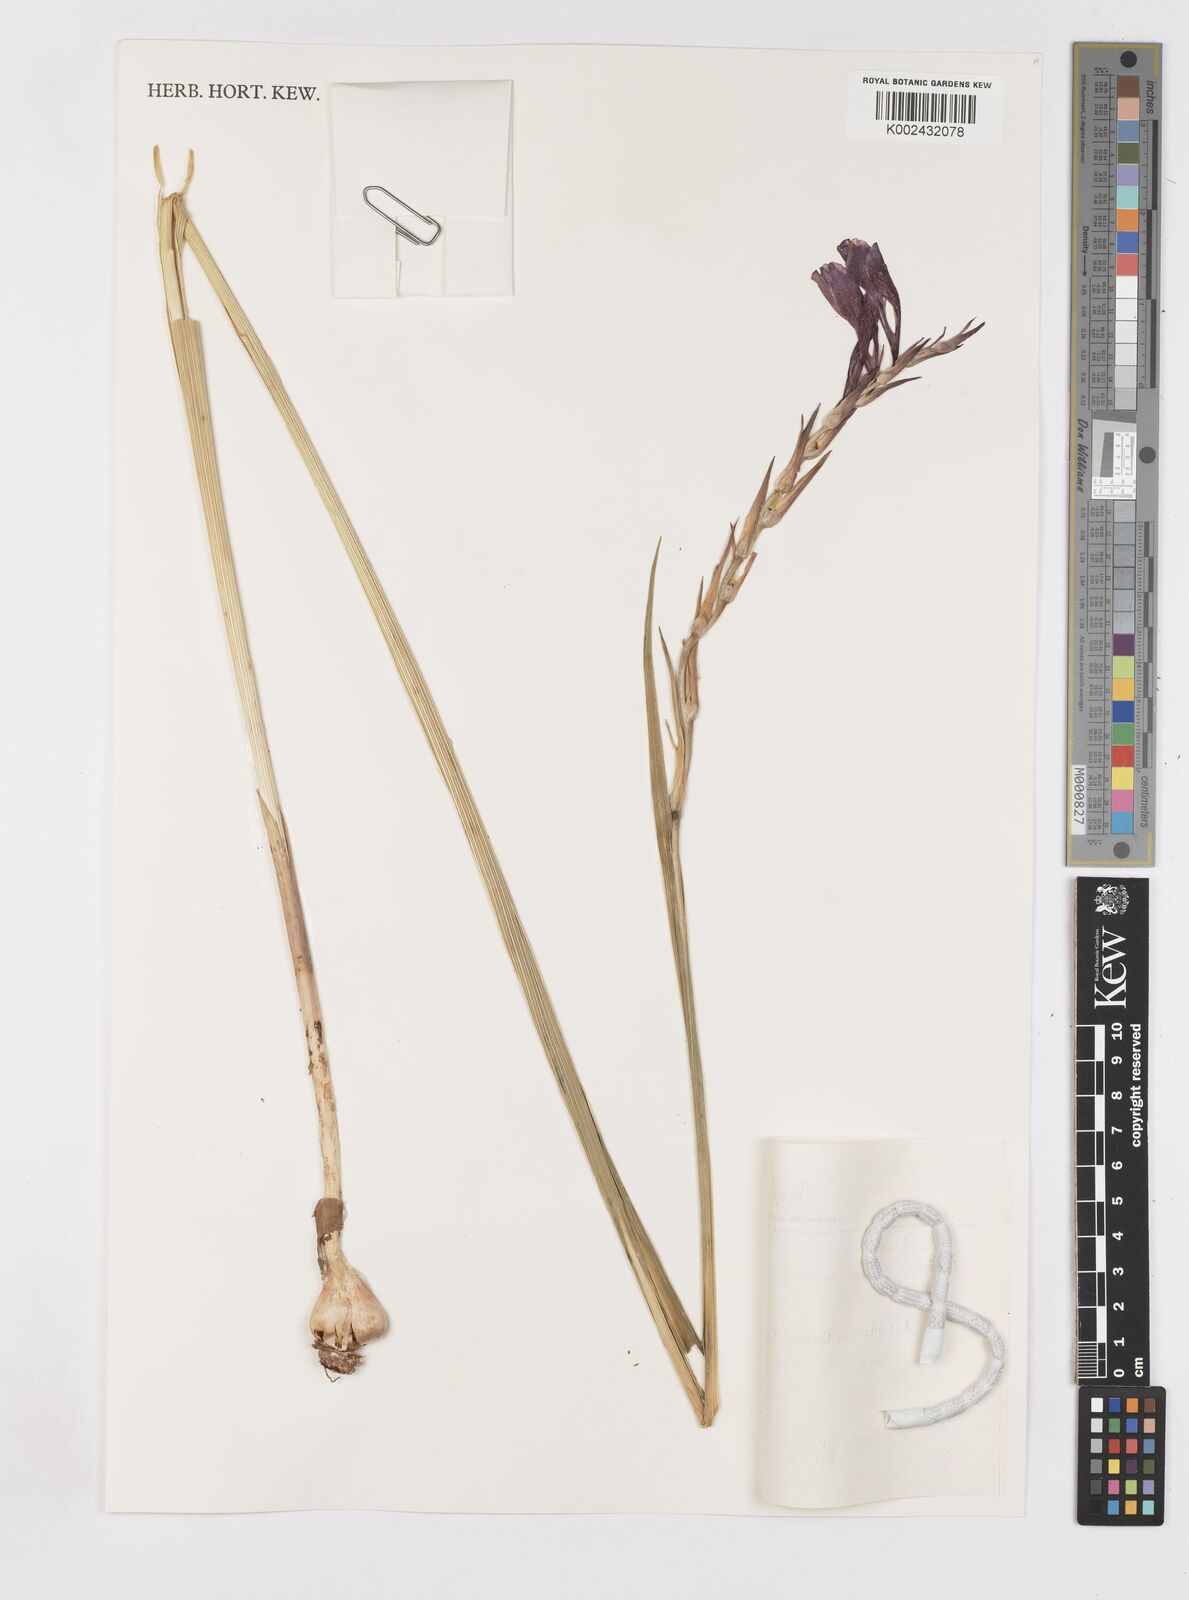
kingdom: Plantae
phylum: Tracheophyta
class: Liliopsida
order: Asparagales
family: Iridaceae
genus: Gladiolus
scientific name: Gladiolus atroviolaceus
